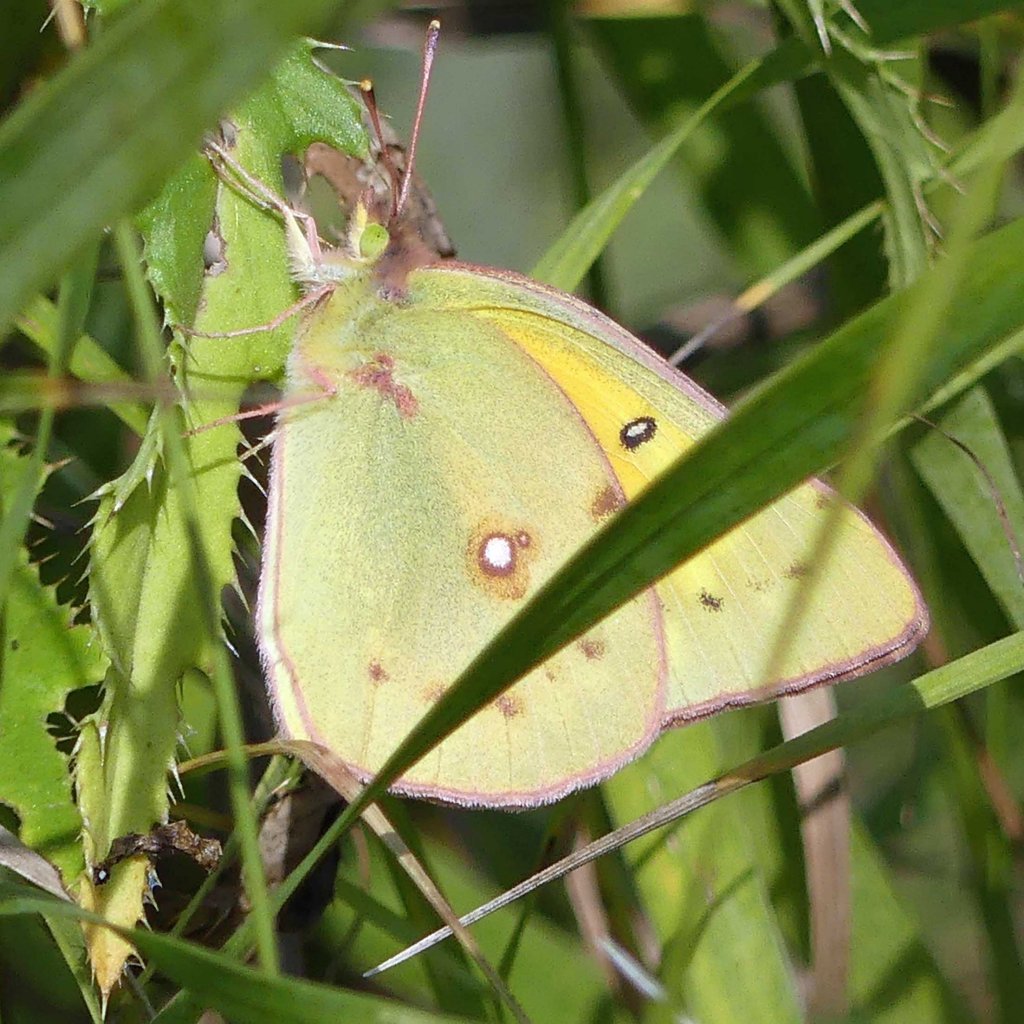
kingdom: Animalia
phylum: Arthropoda
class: Insecta
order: Lepidoptera
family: Pieridae
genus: Colias
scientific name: Colias eurytheme
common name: Orange Sulphur
